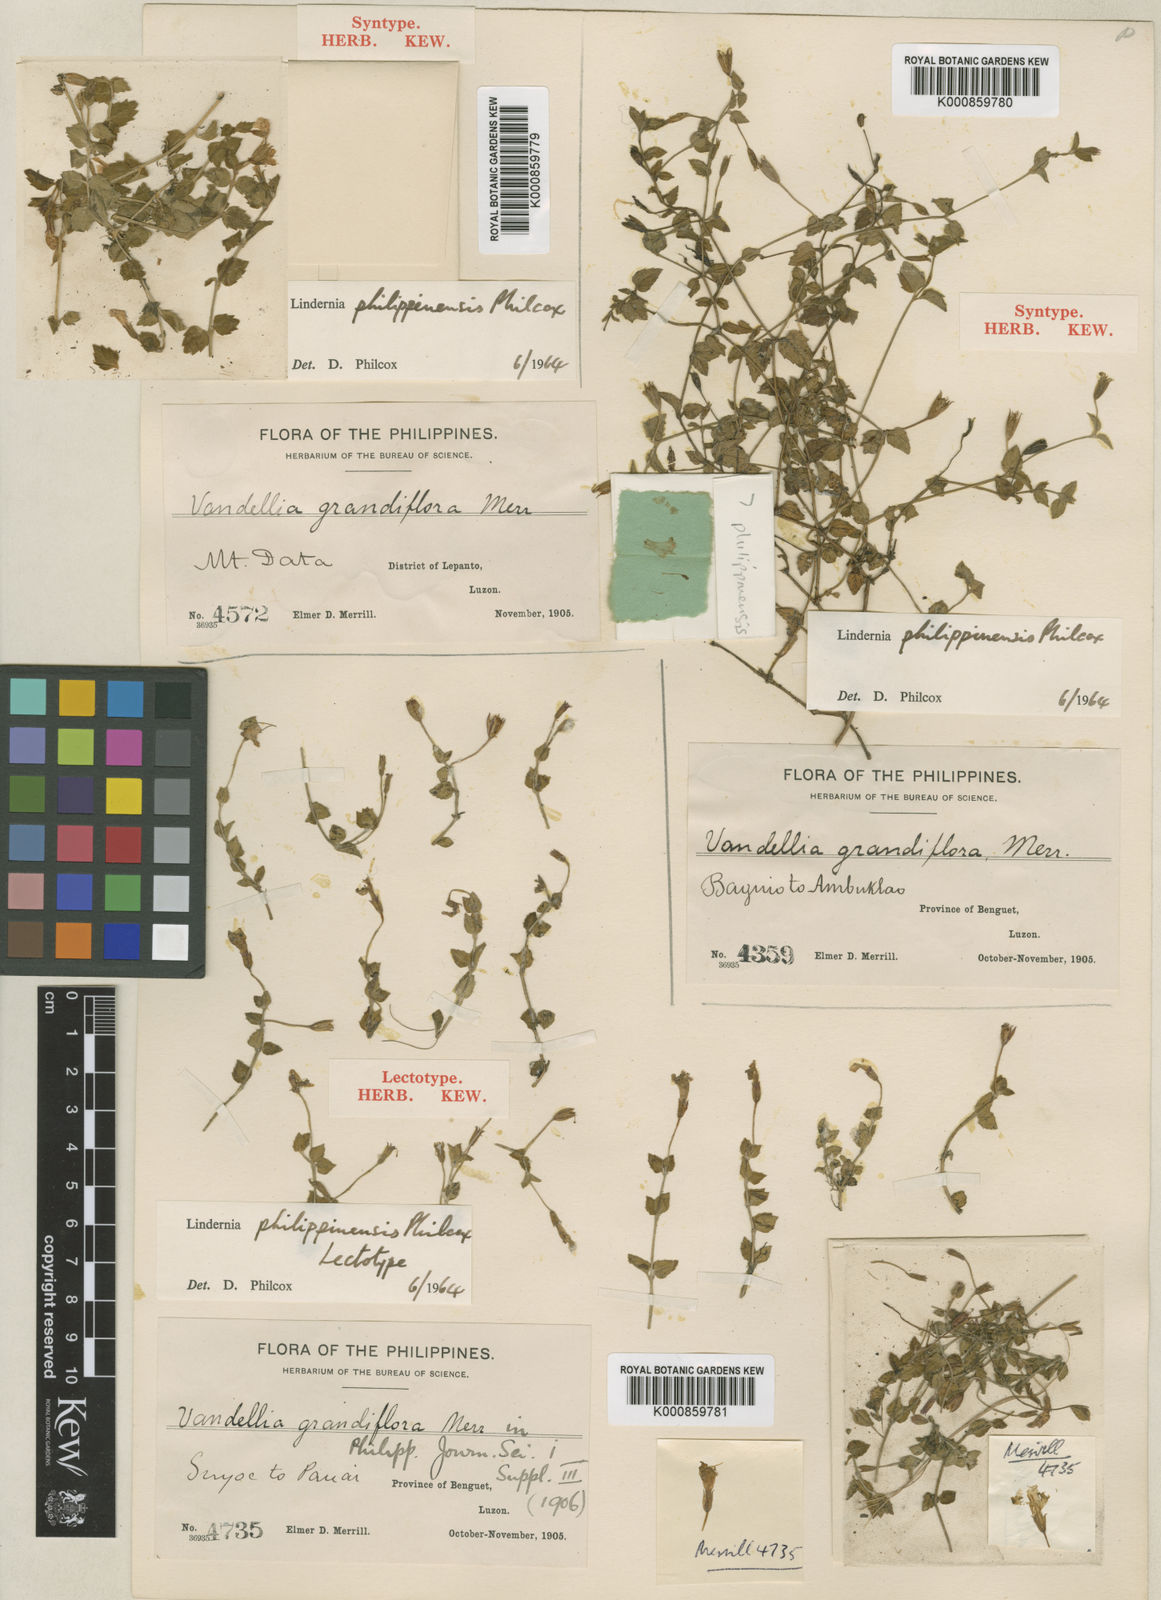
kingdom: Plantae
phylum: Tracheophyta
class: Magnoliopsida
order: Lamiales
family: Linderniaceae
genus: Torenia
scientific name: Torenia grandiflora
